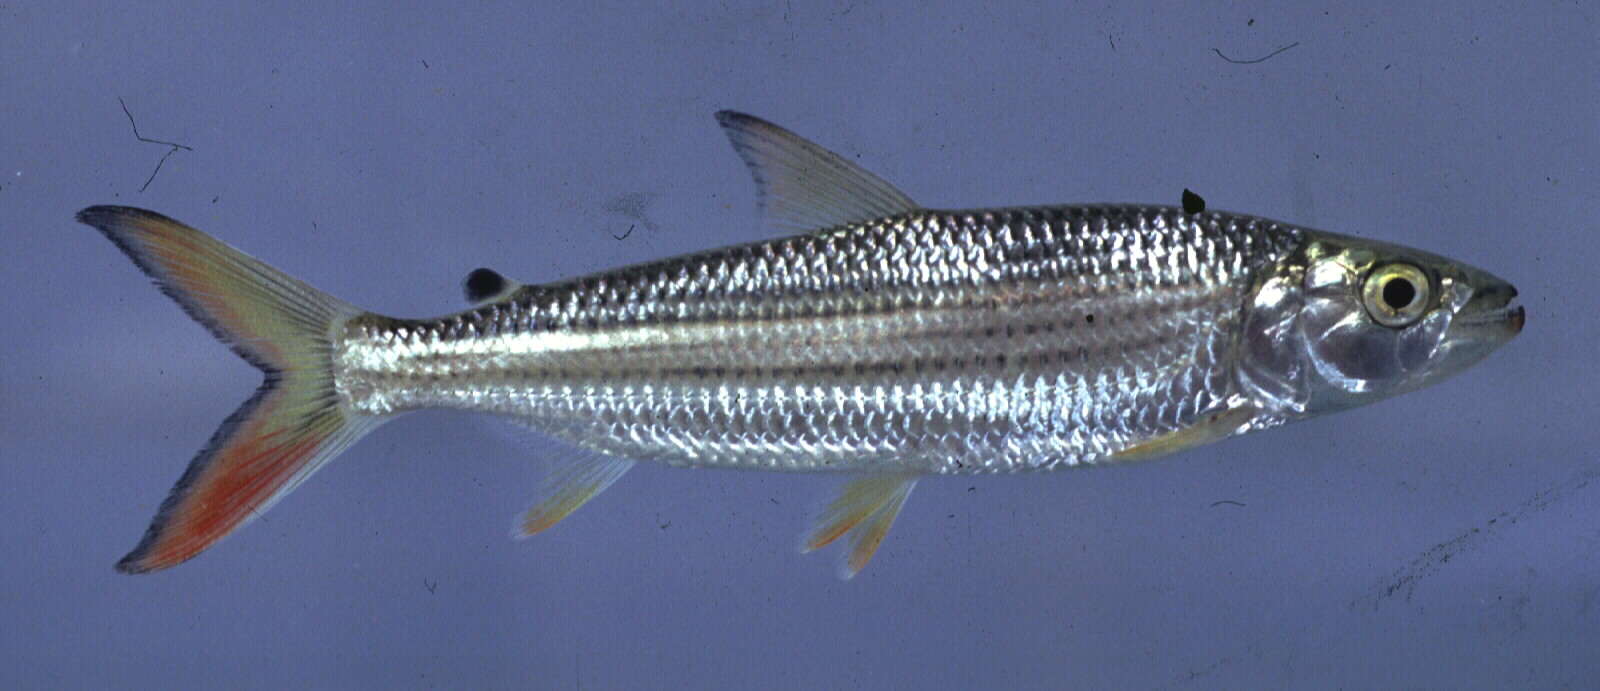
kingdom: Animalia
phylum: Chordata
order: Characiformes
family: Alestidae
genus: Hydrocynus
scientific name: Hydrocynus vittatus
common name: Tigerfish
